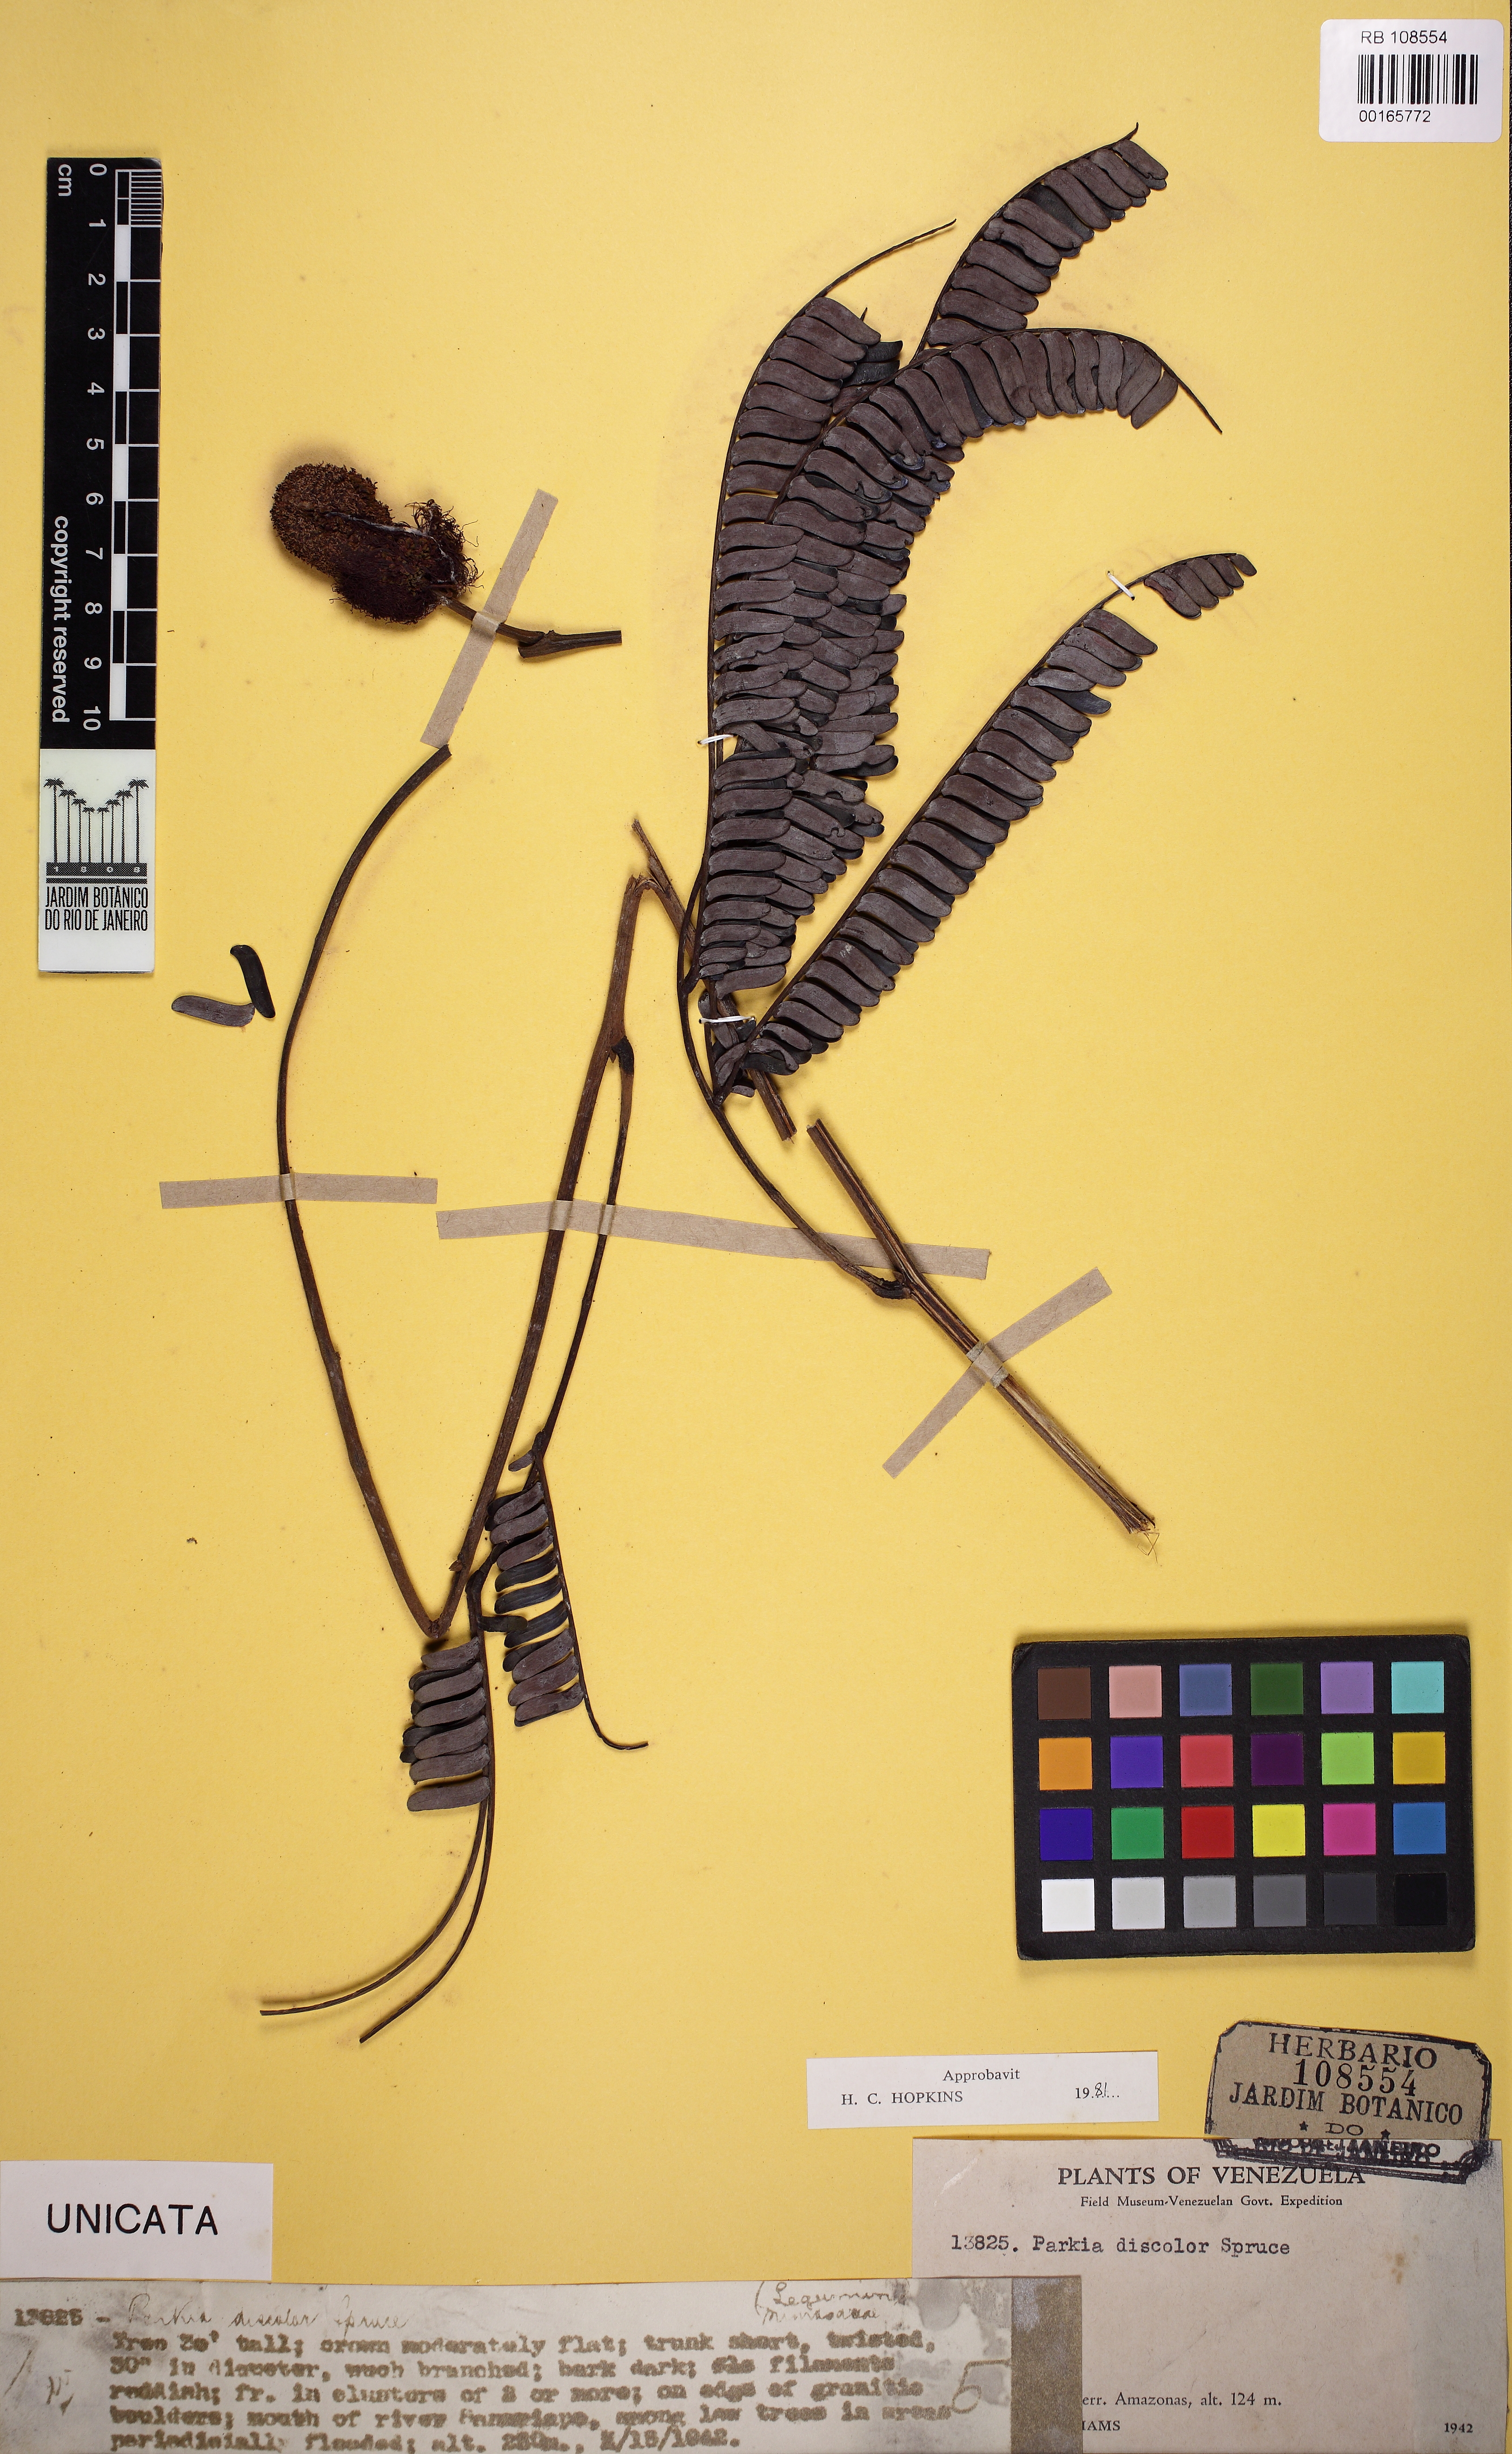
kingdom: Plantae
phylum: Tracheophyta
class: Magnoliopsida
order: Fabales
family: Fabaceae
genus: Parkia
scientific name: Parkia discolor
